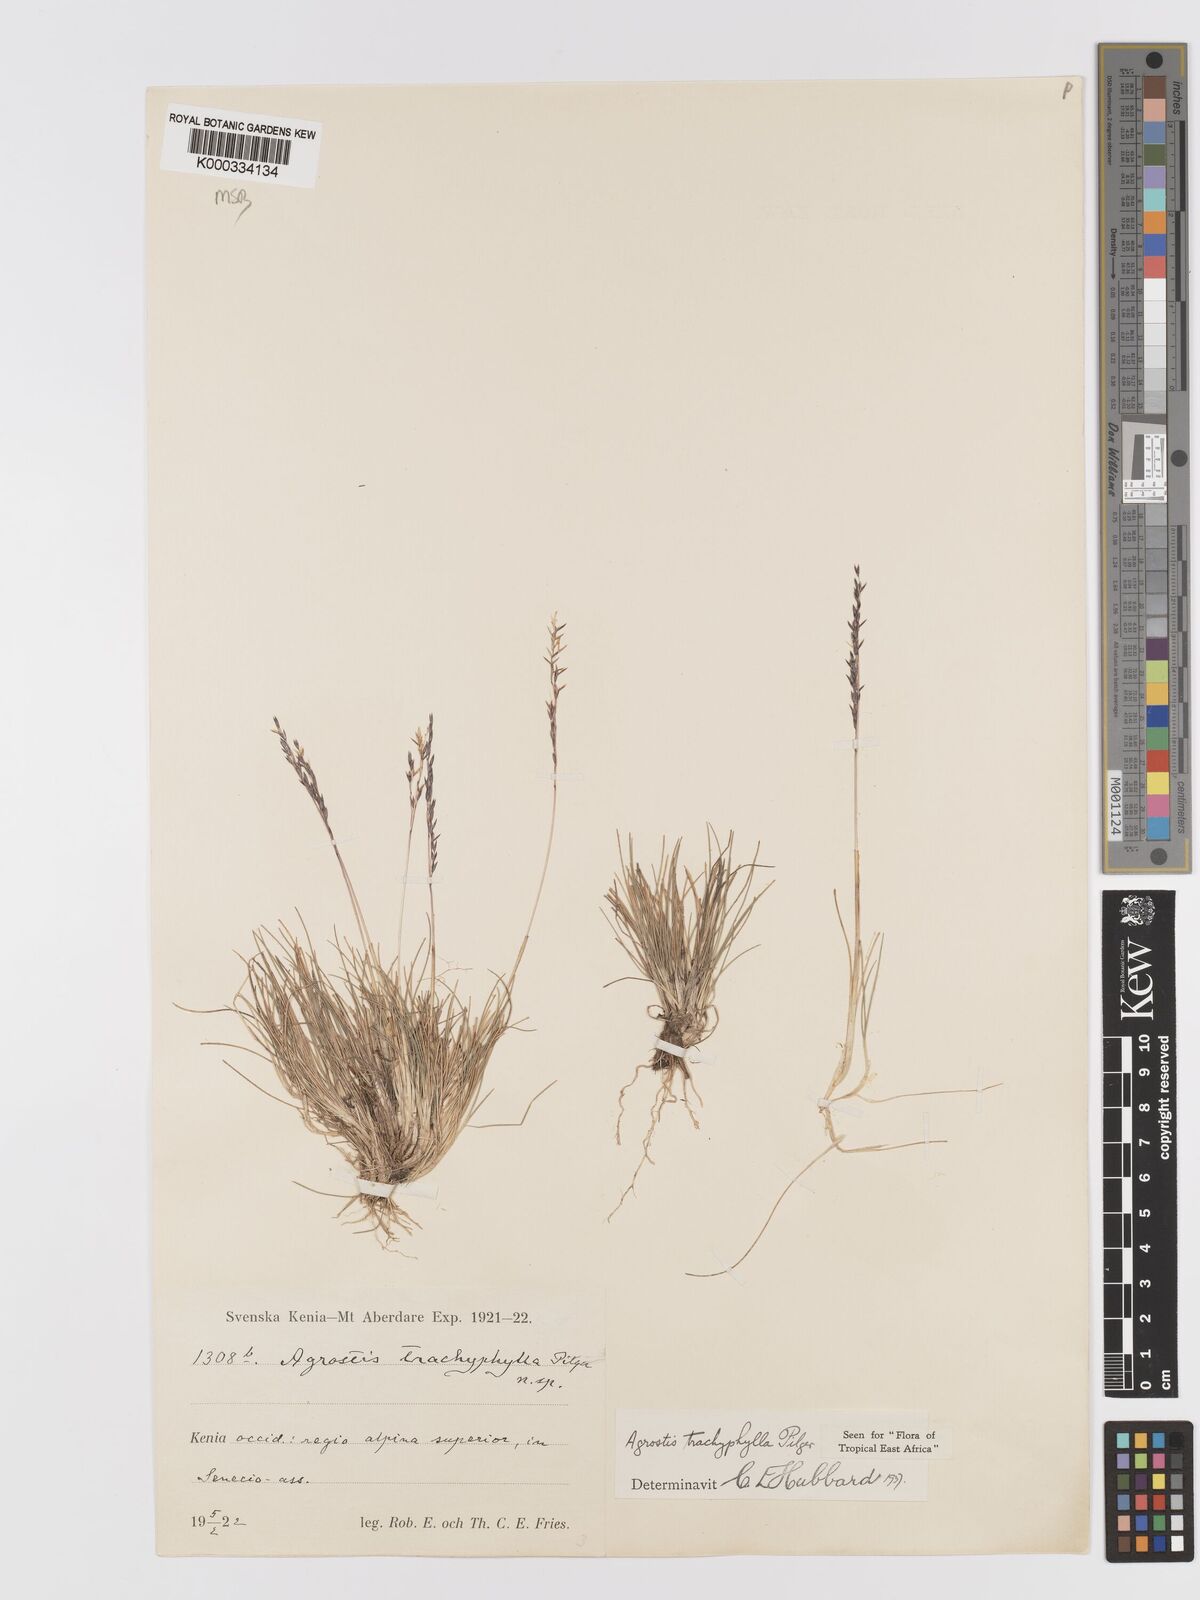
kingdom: Plantae
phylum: Tracheophyta
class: Liliopsida
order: Poales
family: Poaceae
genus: Agrostis
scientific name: Agrostis trachyphylla
